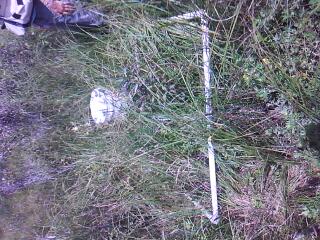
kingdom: Plantae
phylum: Tracheophyta
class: Magnoliopsida
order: Cornales
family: Cornaceae
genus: Cornus
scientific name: Cornus amomum
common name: Silky dogwood
